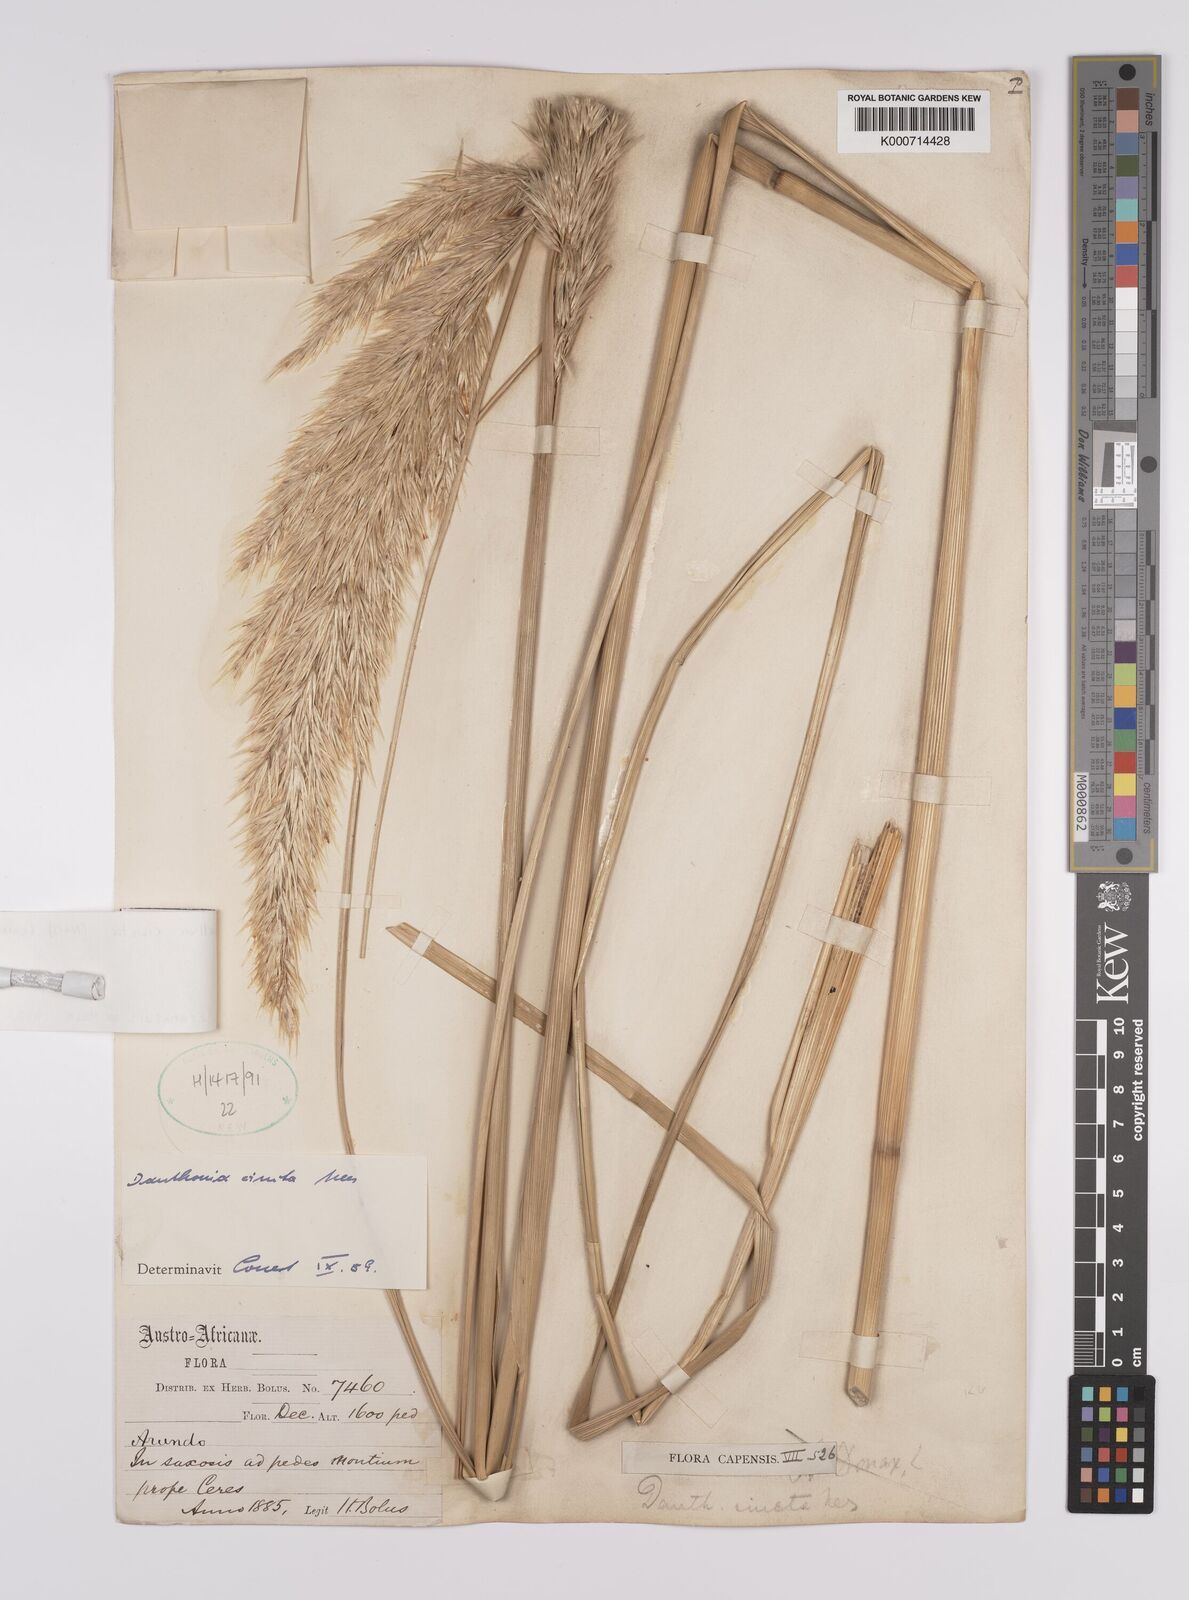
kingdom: Plantae
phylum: Tracheophyta
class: Liliopsida
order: Poales
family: Poaceae
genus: Rytidosperma
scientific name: Rytidosperma
